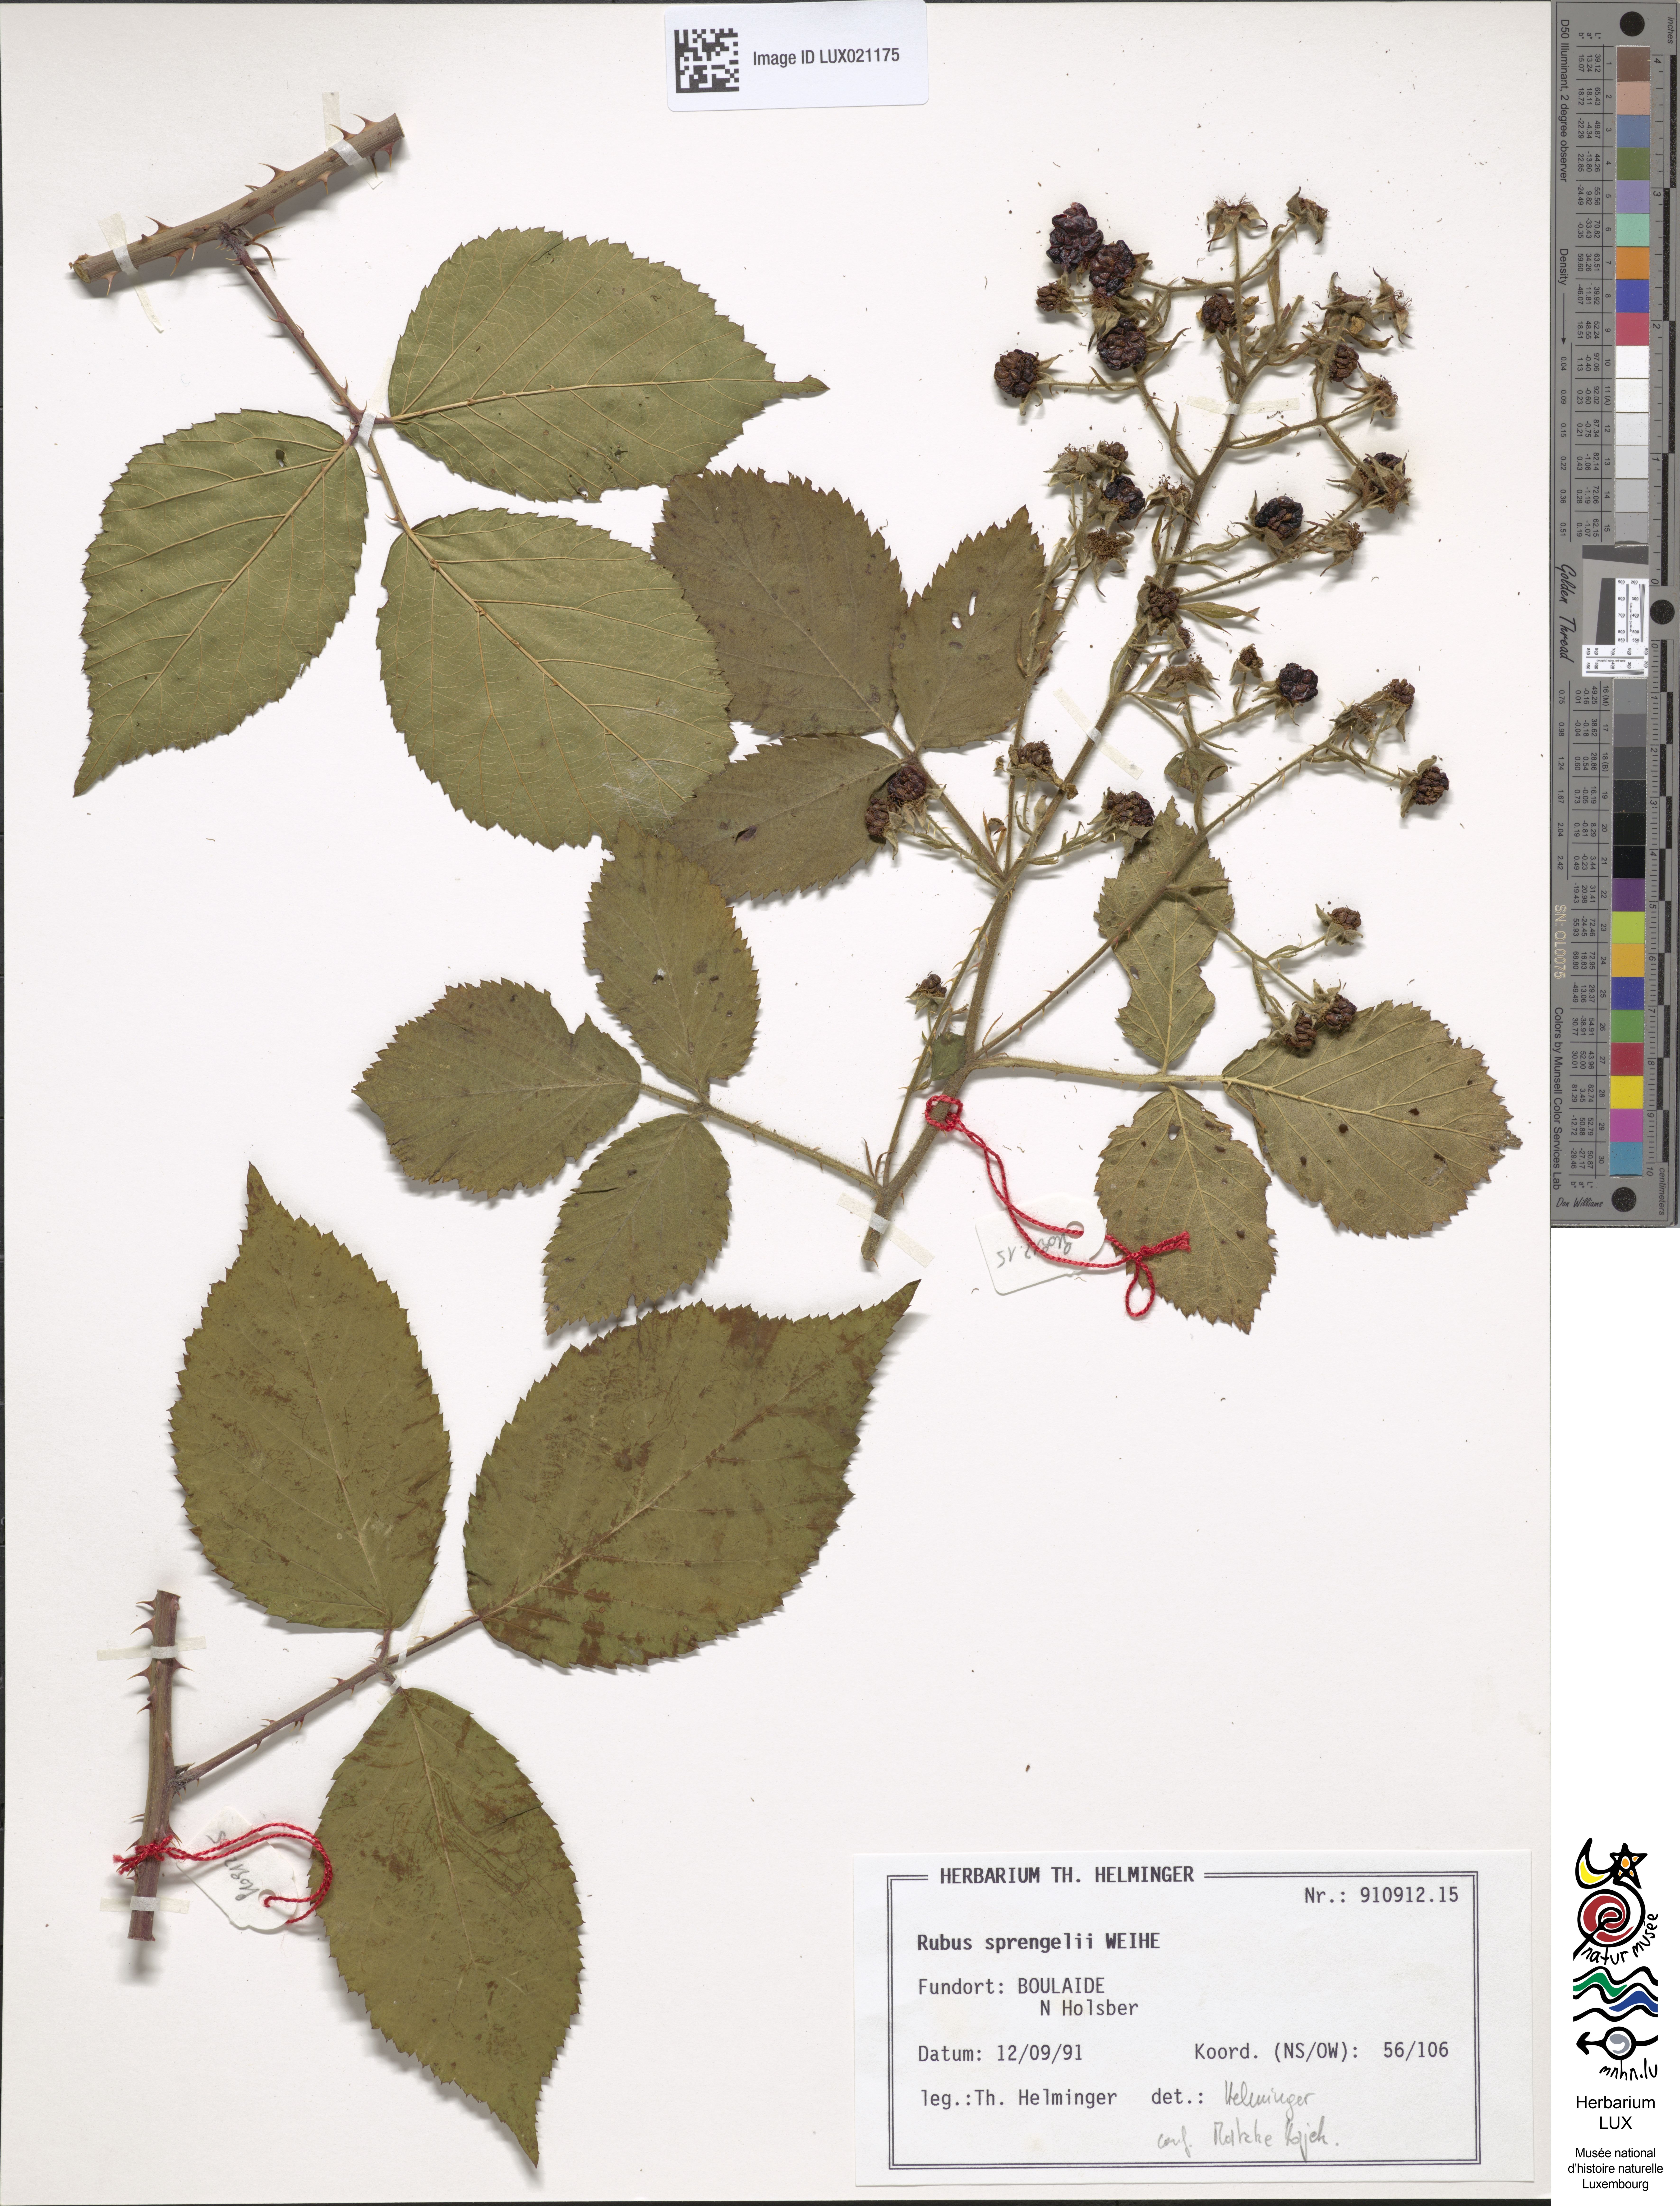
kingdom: Plantae
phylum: Tracheophyta
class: Magnoliopsida
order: Rosales
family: Rosaceae
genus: Rubus
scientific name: Rubus sprengelii
